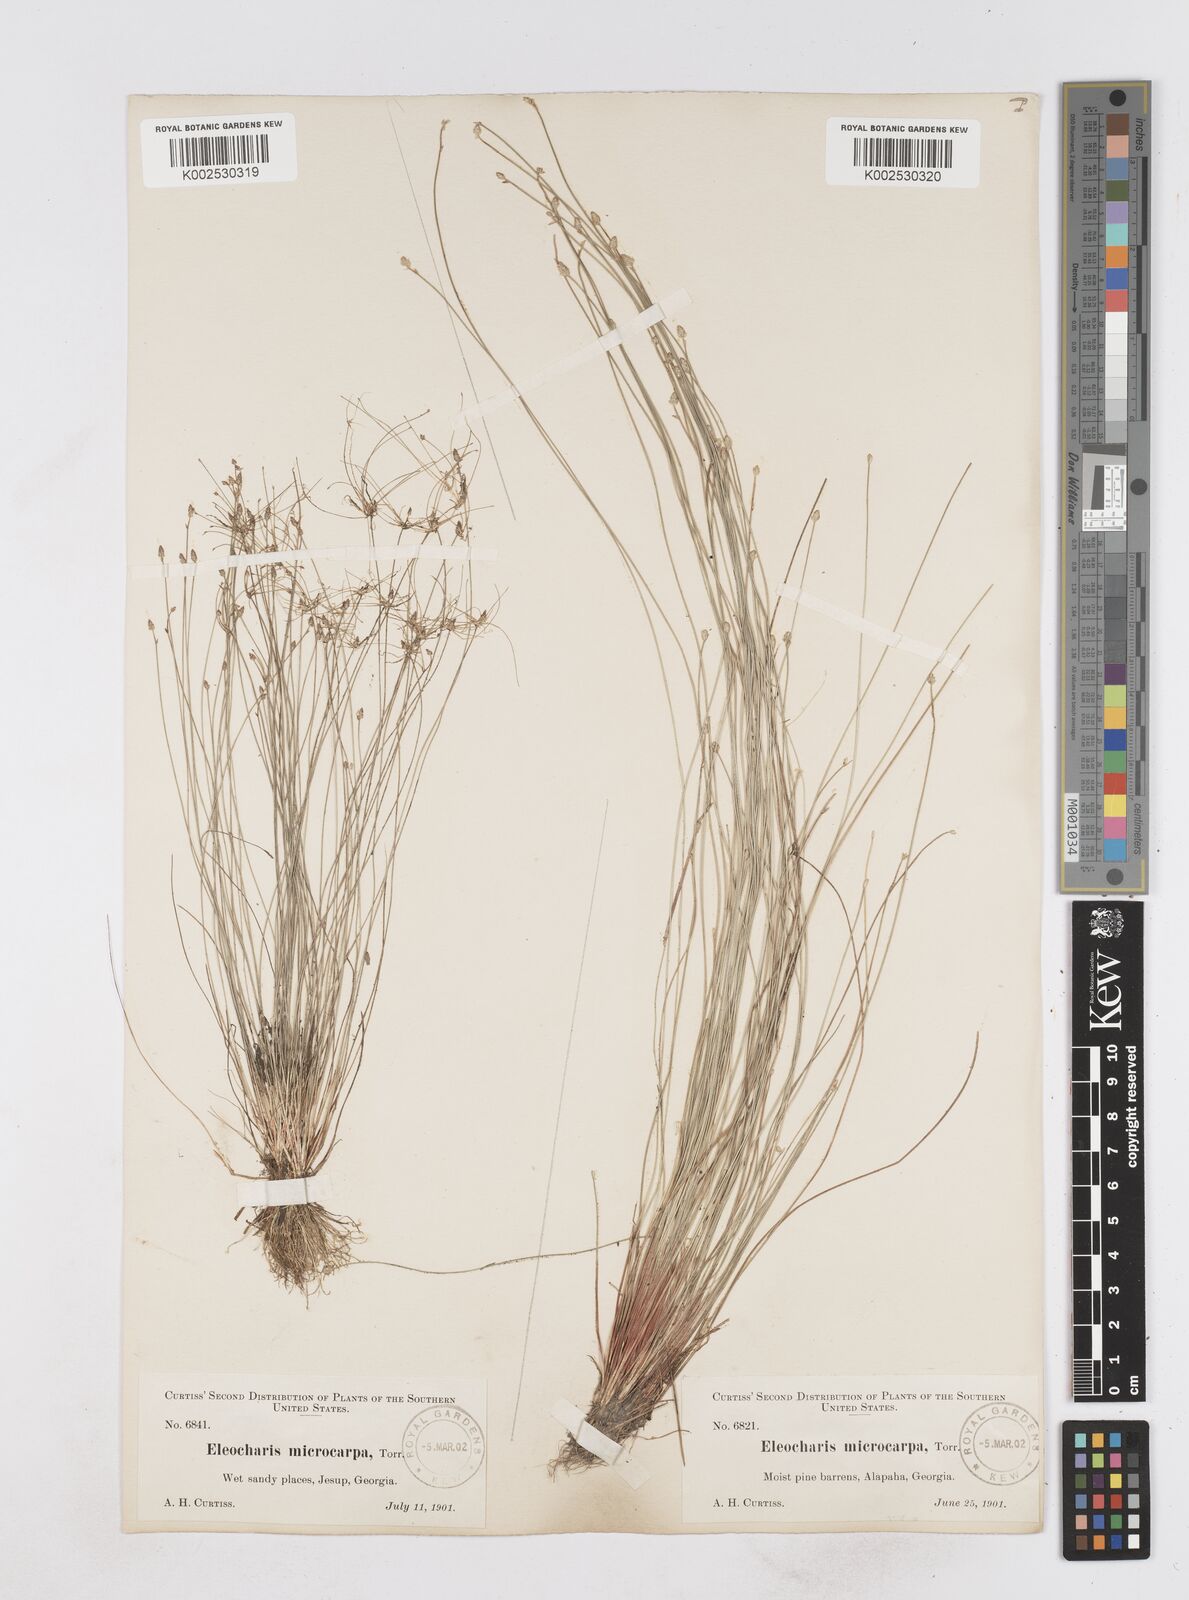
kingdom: Plantae
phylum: Tracheophyta
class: Liliopsida
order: Poales
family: Cyperaceae
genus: Eleocharis
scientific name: Eleocharis microcarpa
